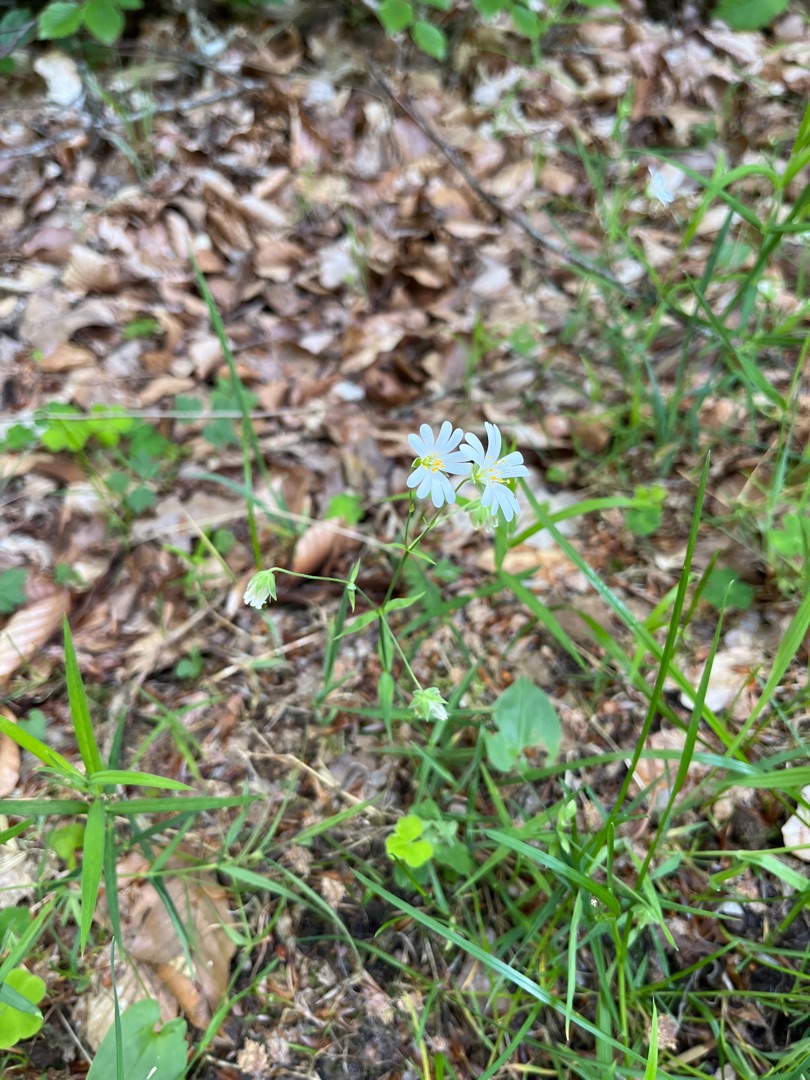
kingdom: Plantae
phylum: Tracheophyta
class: Magnoliopsida
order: Caryophyllales
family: Caryophyllaceae
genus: Rabelera
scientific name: Rabelera holostea
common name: Stor fladstjerne
